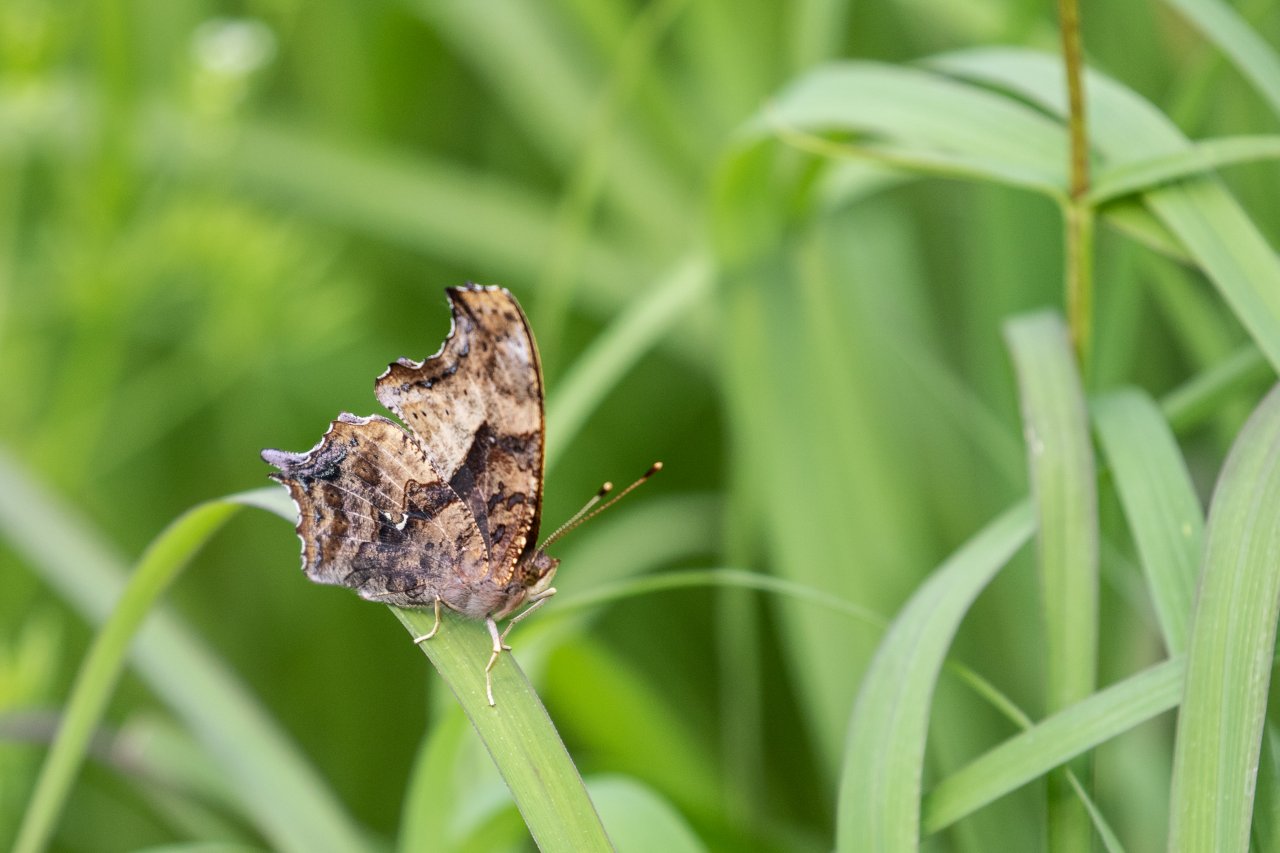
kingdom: Animalia
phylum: Arthropoda
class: Insecta
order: Lepidoptera
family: Nymphalidae
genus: Polygonia
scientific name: Polygonia interrogationis
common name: Question Mark
